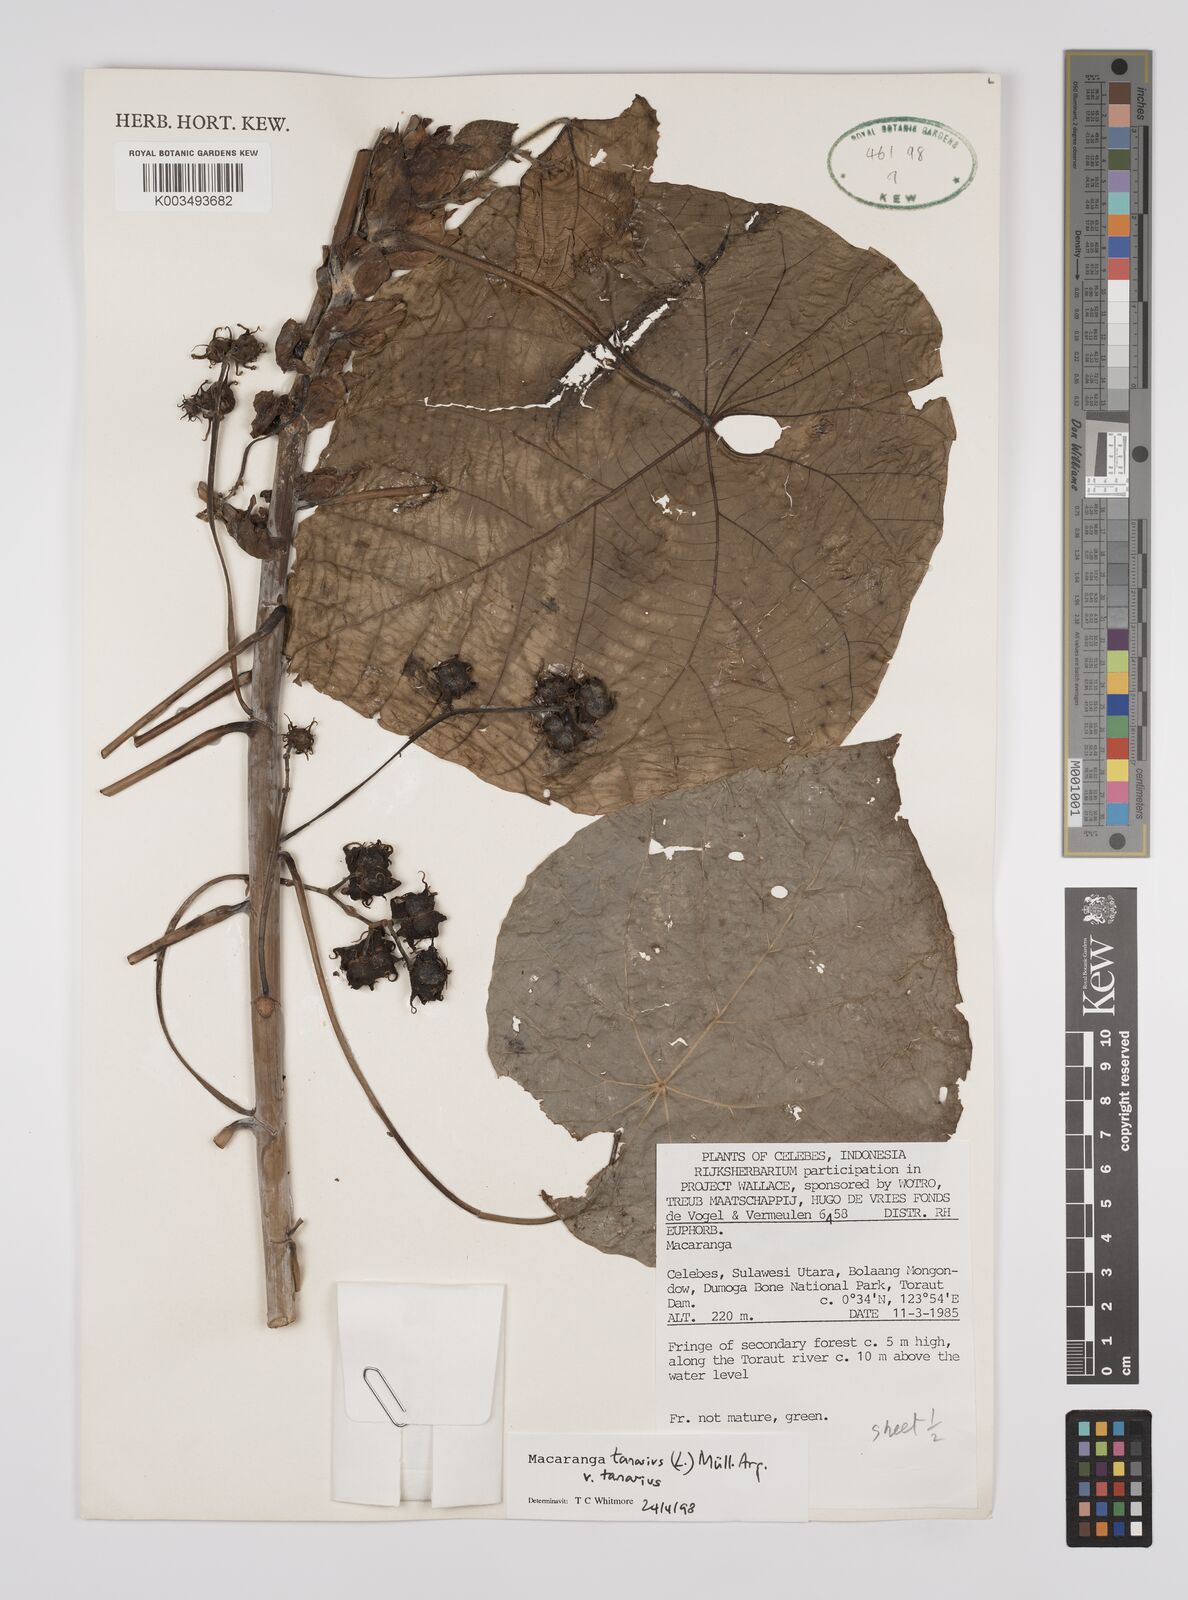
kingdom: Plantae
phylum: Tracheophyta
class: Magnoliopsida
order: Malpighiales
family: Euphorbiaceae
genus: Macaranga
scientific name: Macaranga tanarius
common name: Parasol leaf tree
